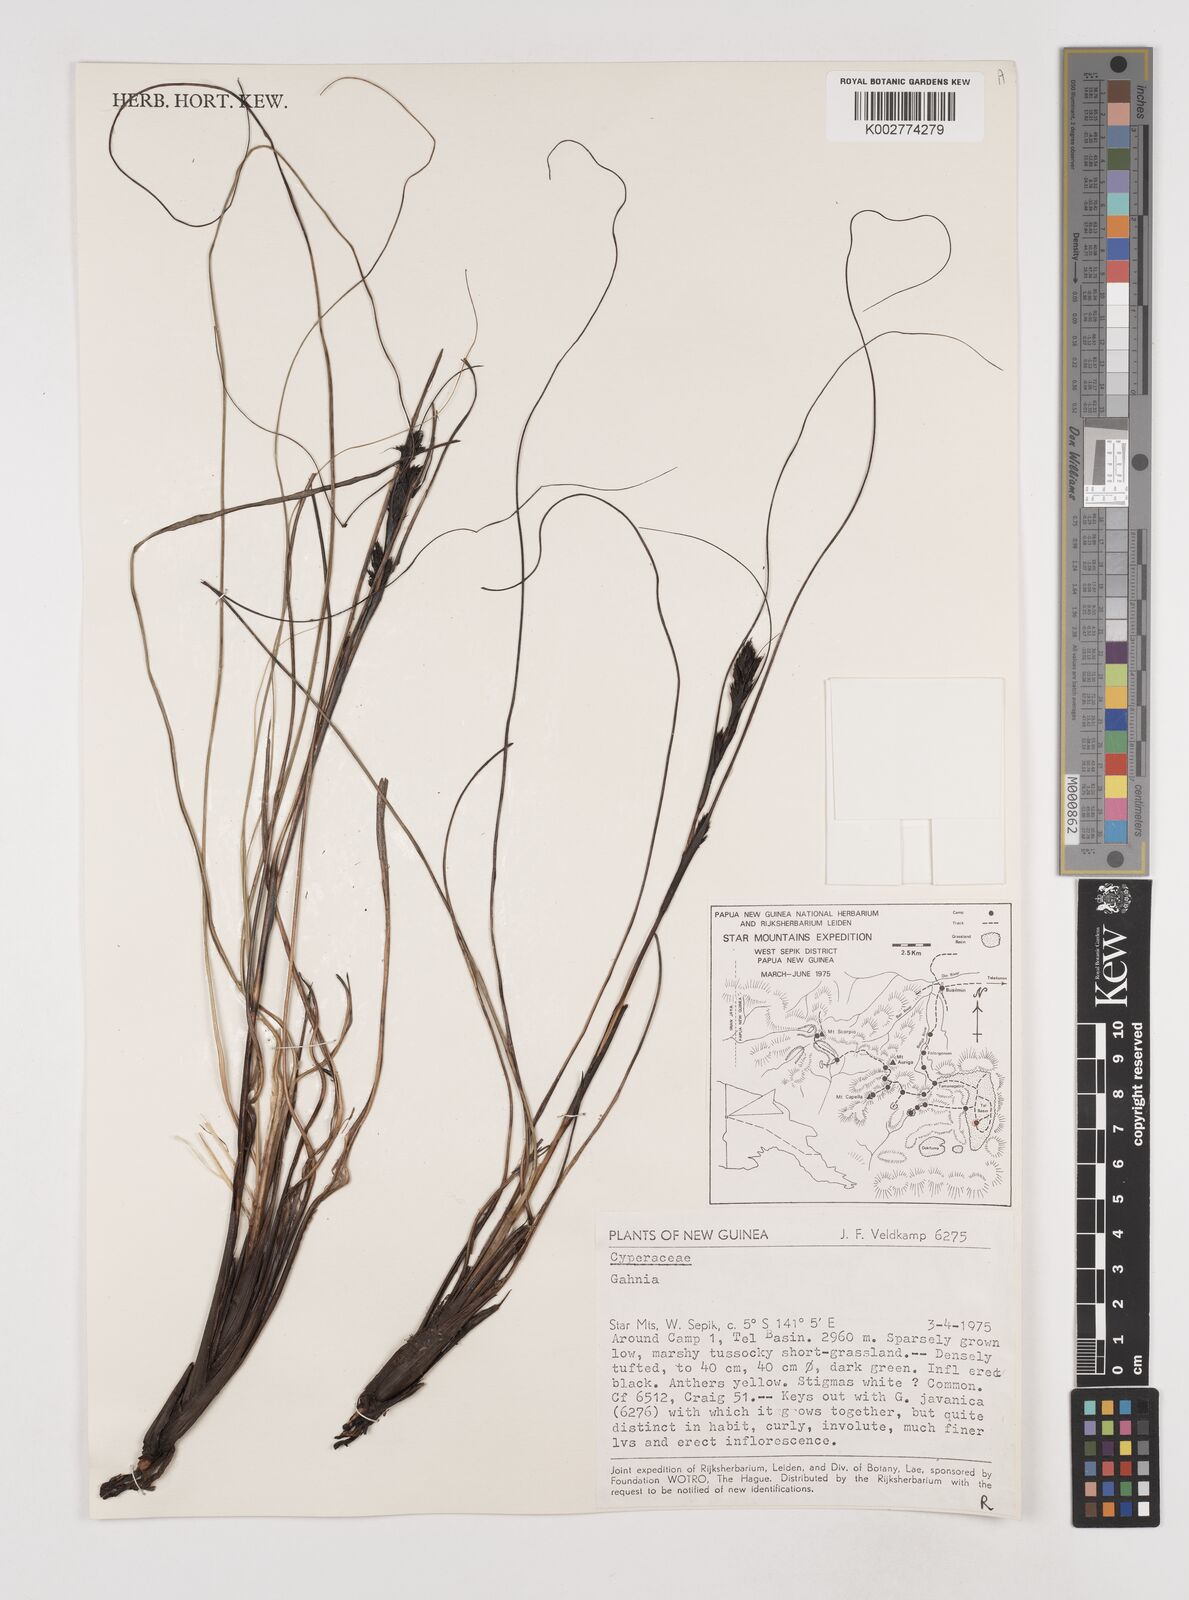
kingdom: Plantae
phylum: Tracheophyta
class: Liliopsida
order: Poales
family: Cyperaceae
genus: Gahnia
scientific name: Gahnia
